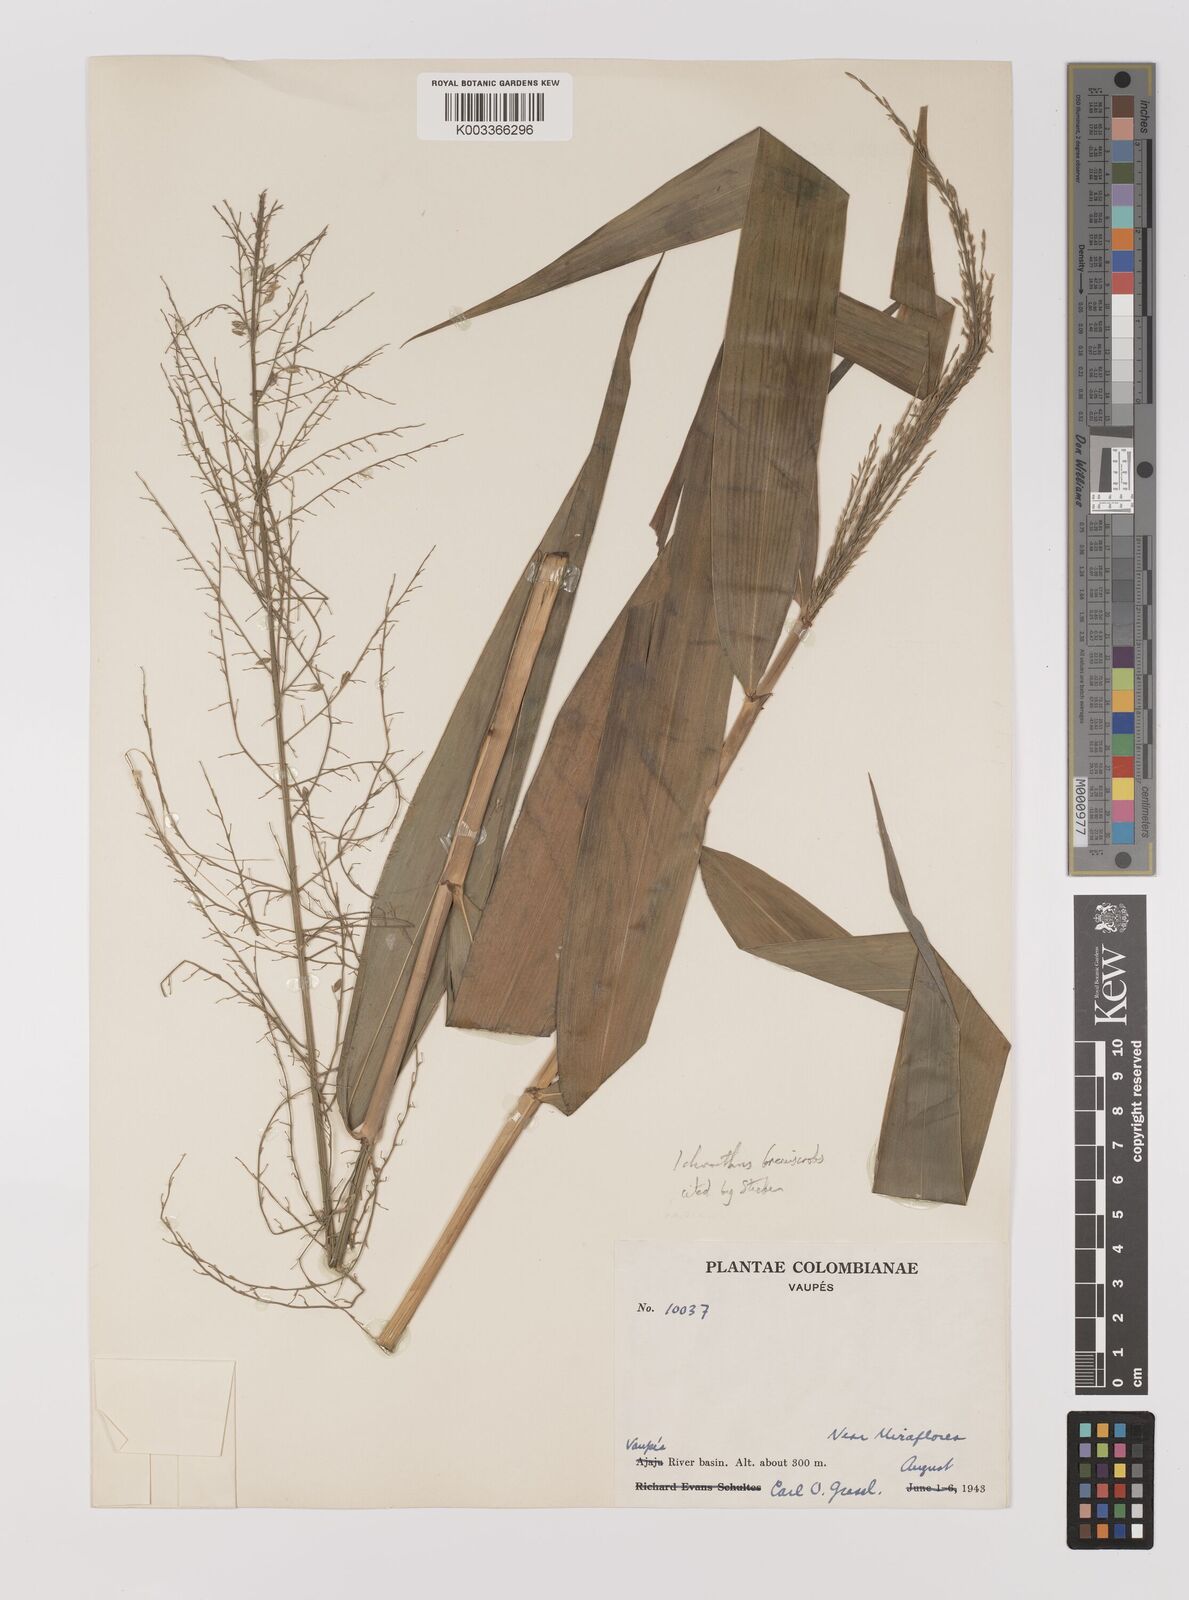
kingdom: Plantae
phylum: Tracheophyta
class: Liliopsida
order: Poales
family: Poaceae
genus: Ichnanthus
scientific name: Ichnanthus breviscrobs
